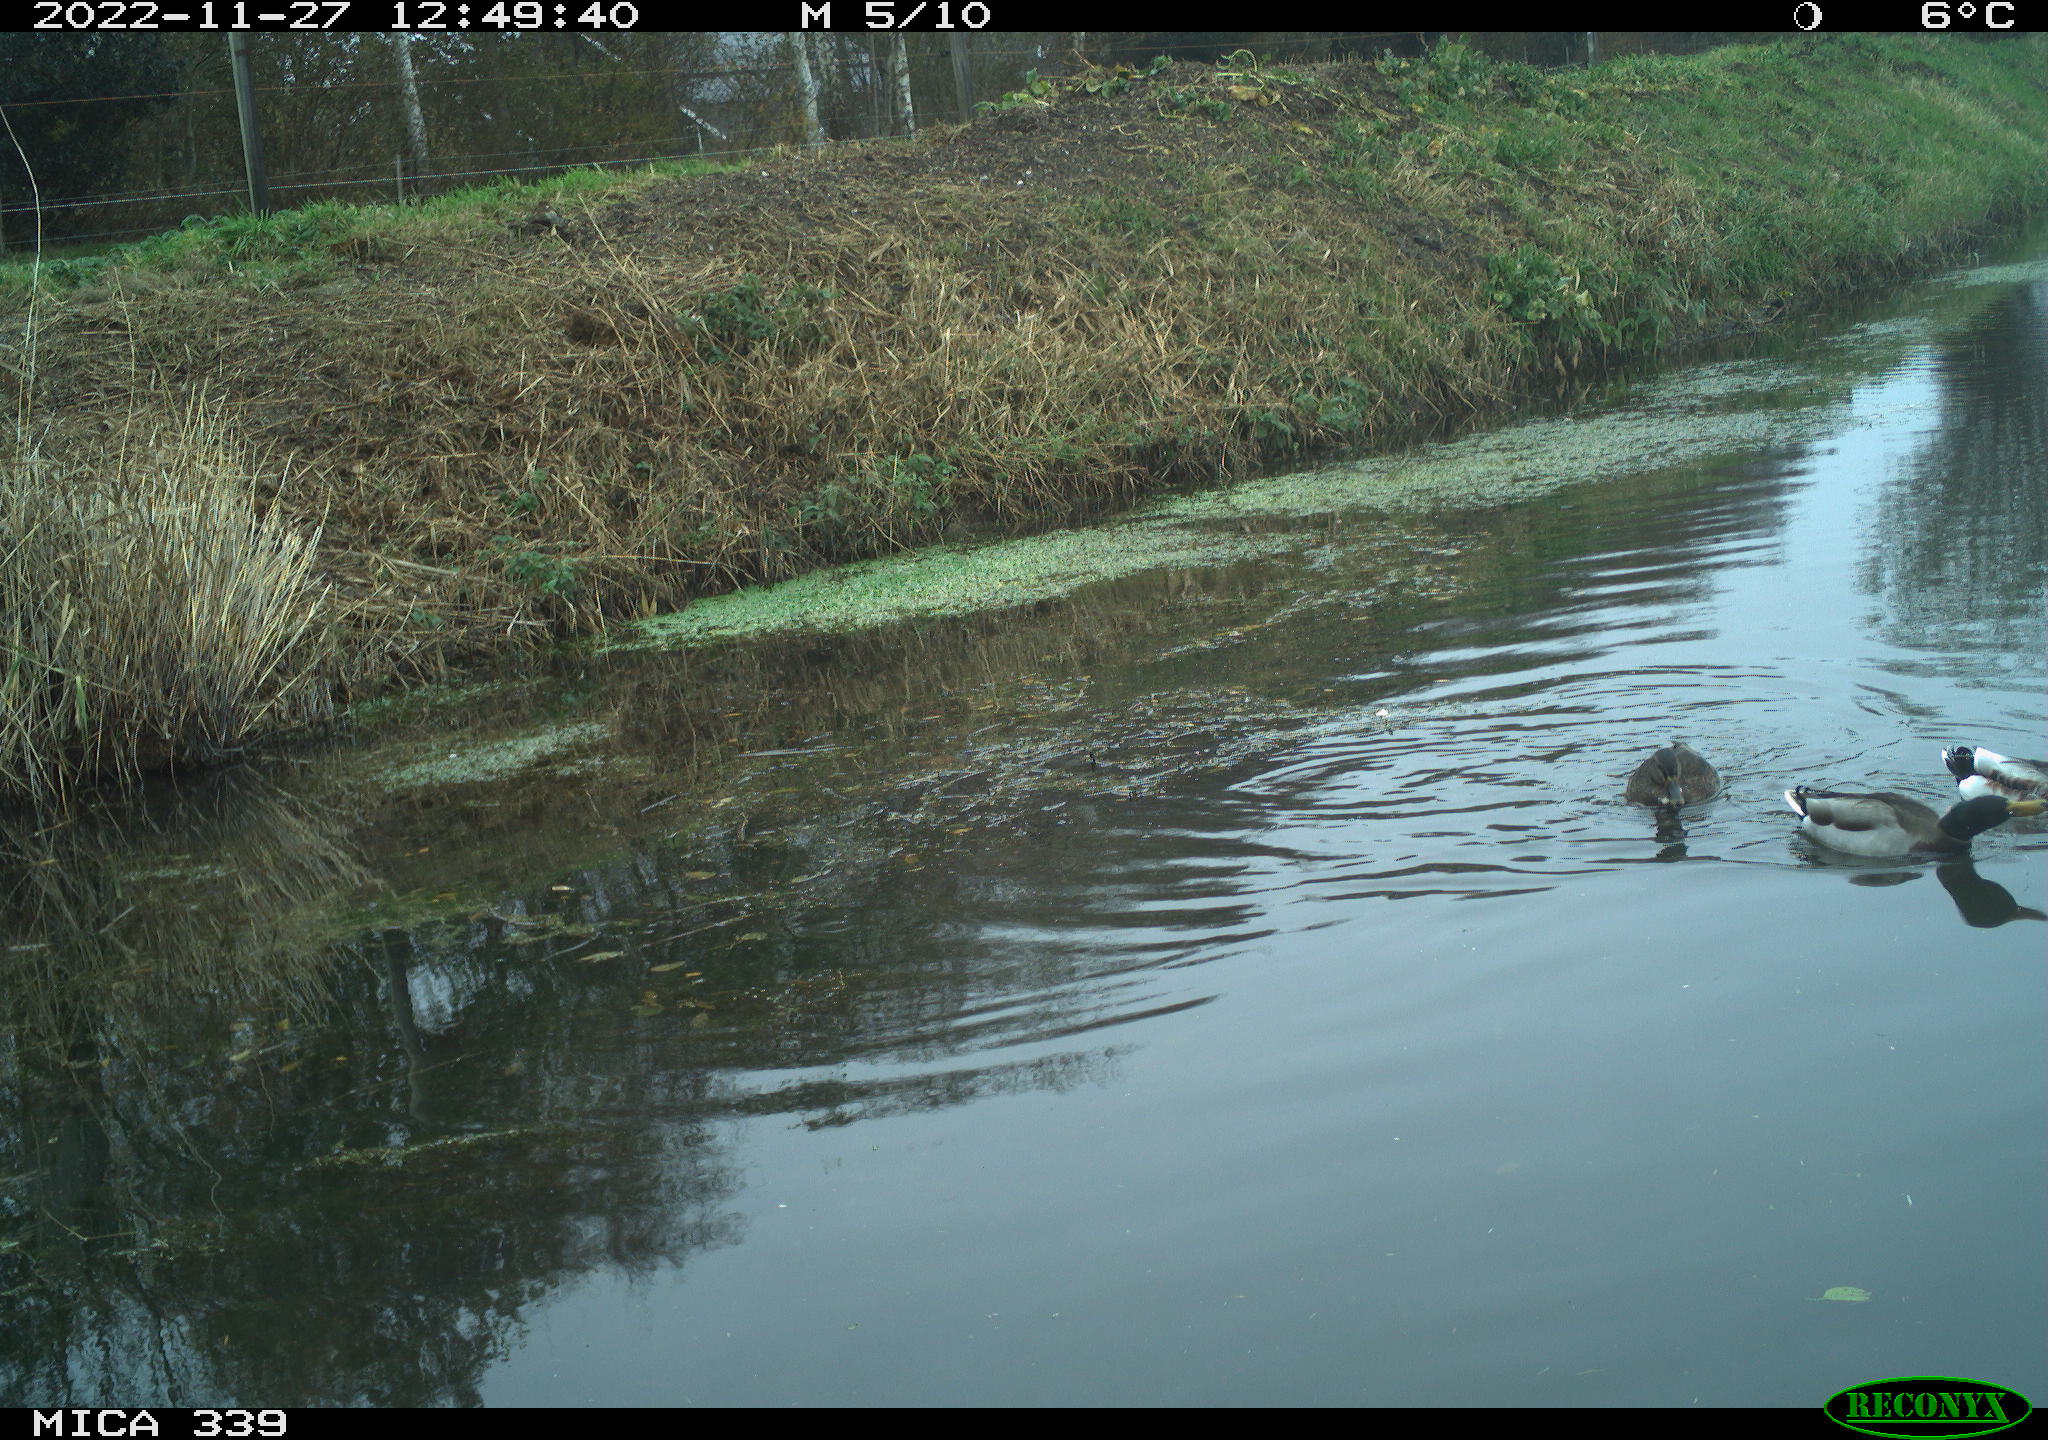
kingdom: Animalia
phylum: Chordata
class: Aves
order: Anseriformes
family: Anatidae
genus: Anas
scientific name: Anas
